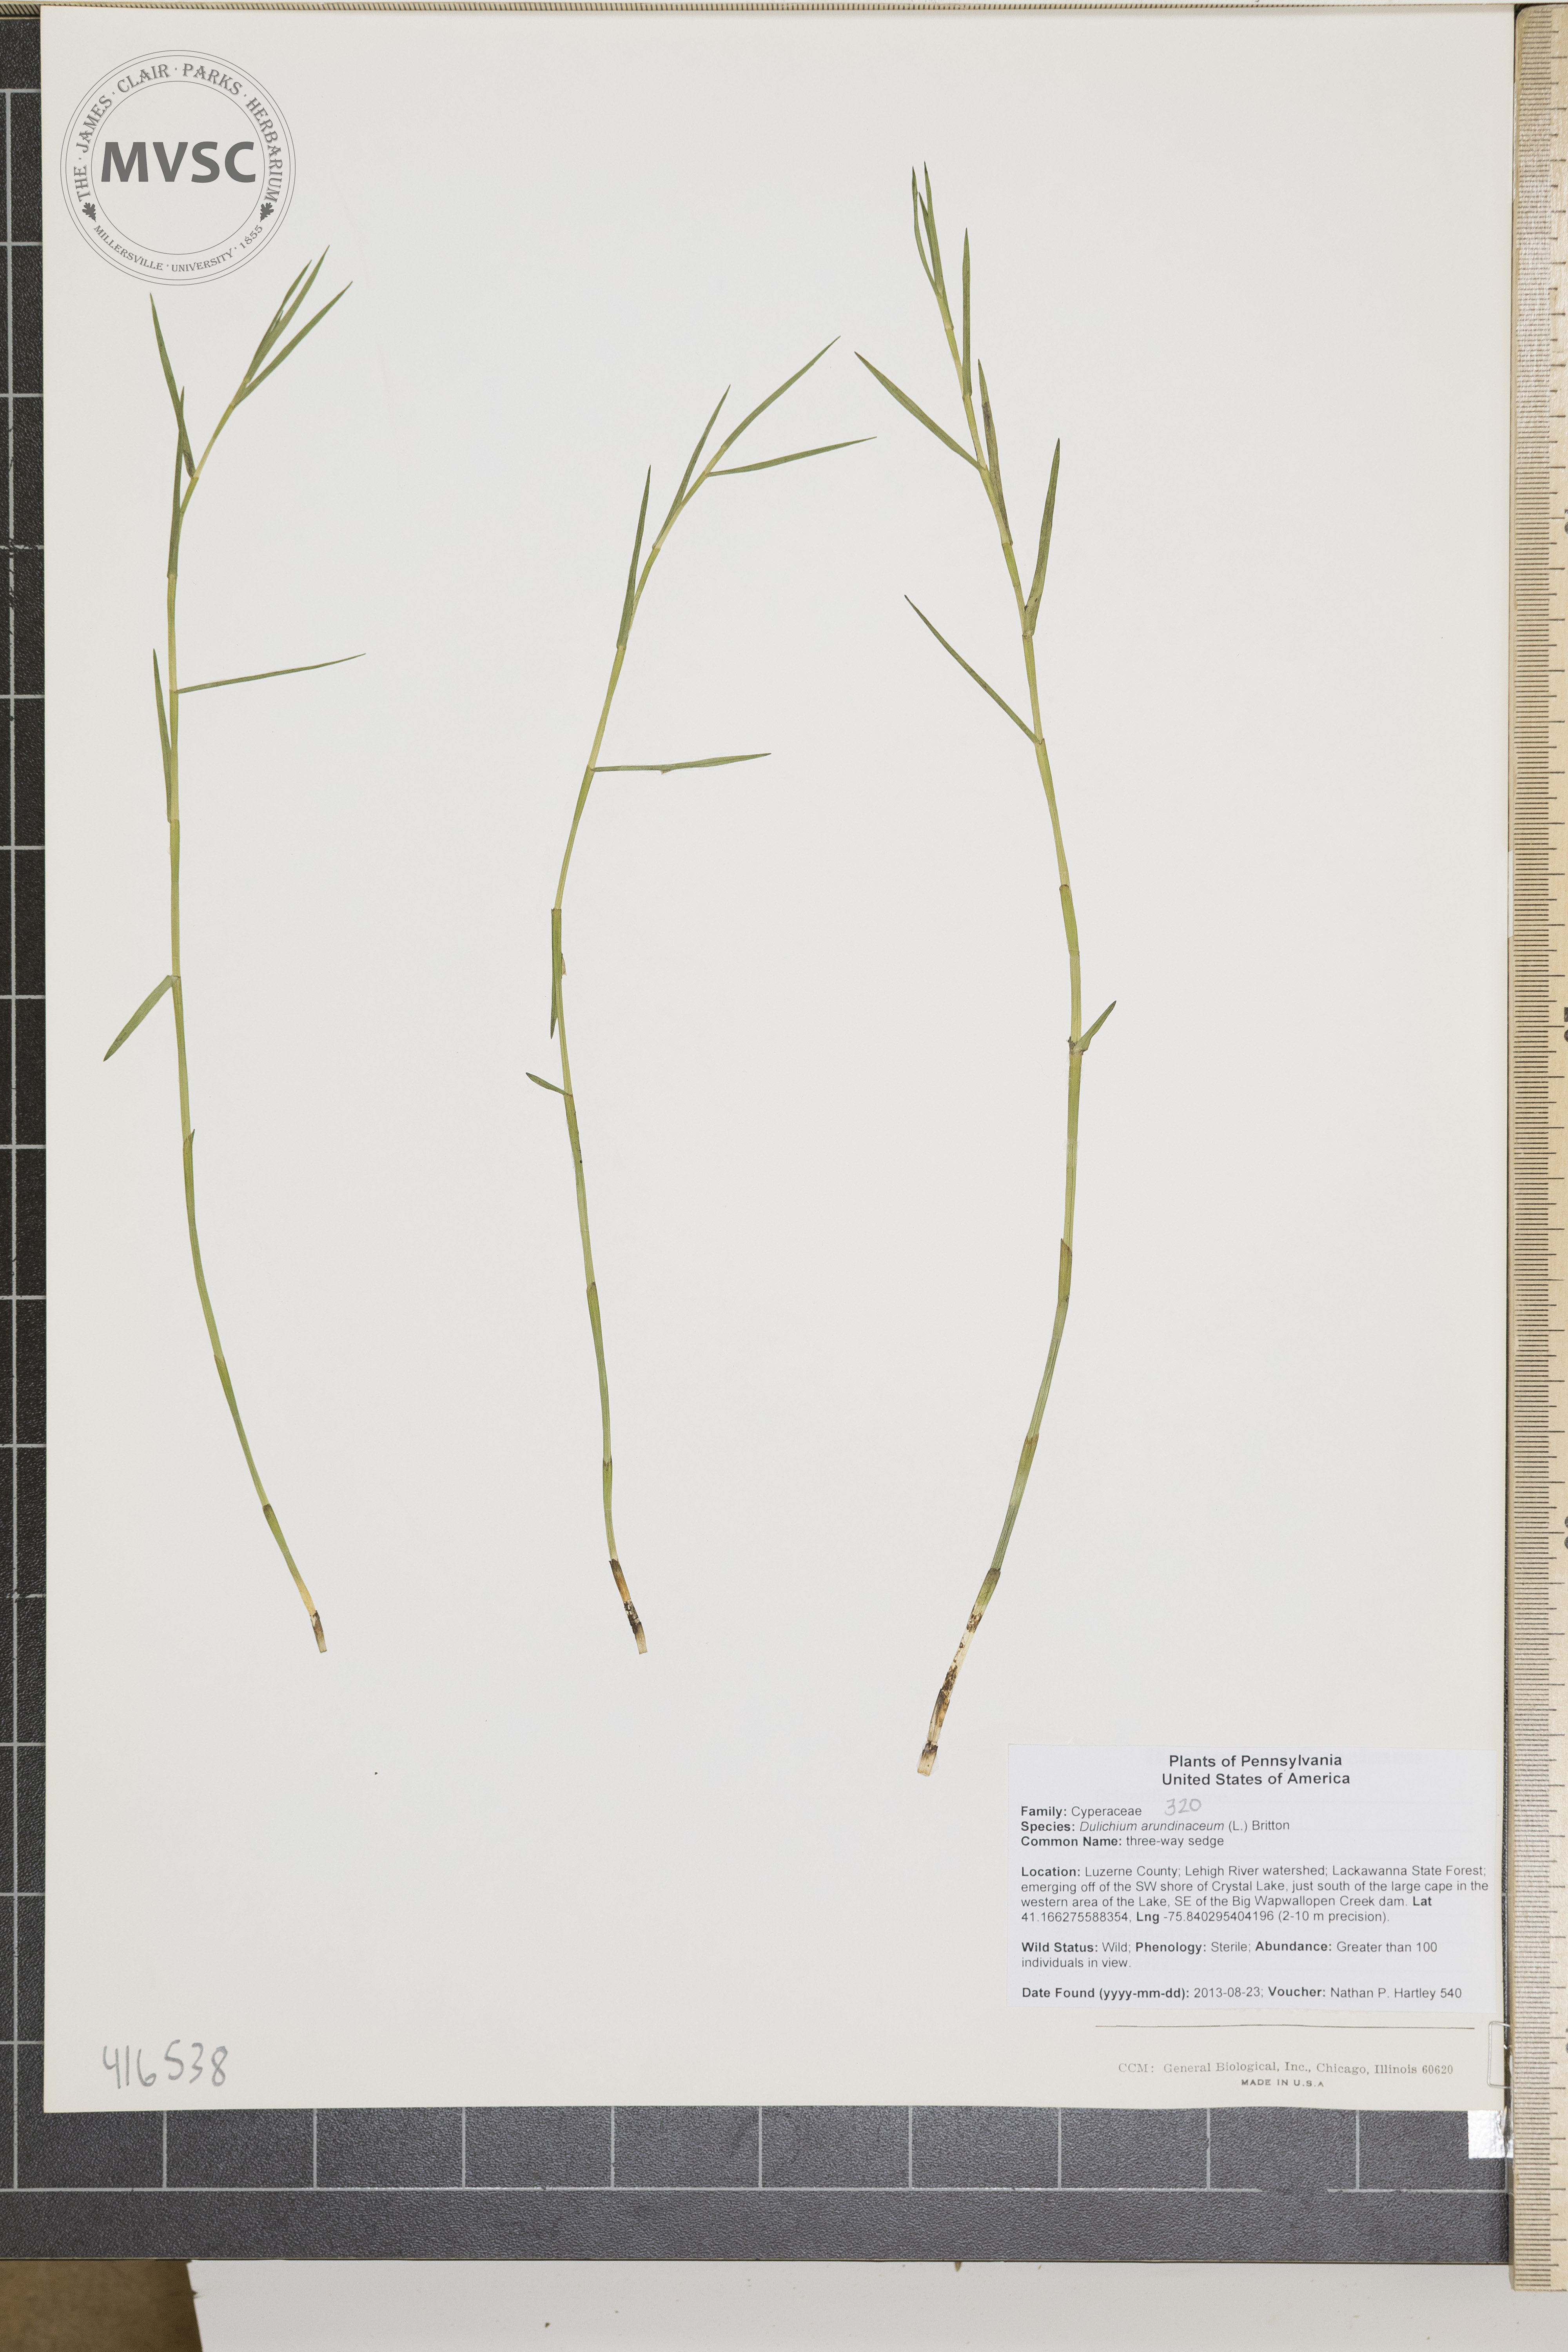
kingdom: Plantae
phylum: Tracheophyta
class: Liliopsida
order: Poales
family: Cyperaceae
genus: Dulichium
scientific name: Dulichium arundinaceum
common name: threeway sedge
